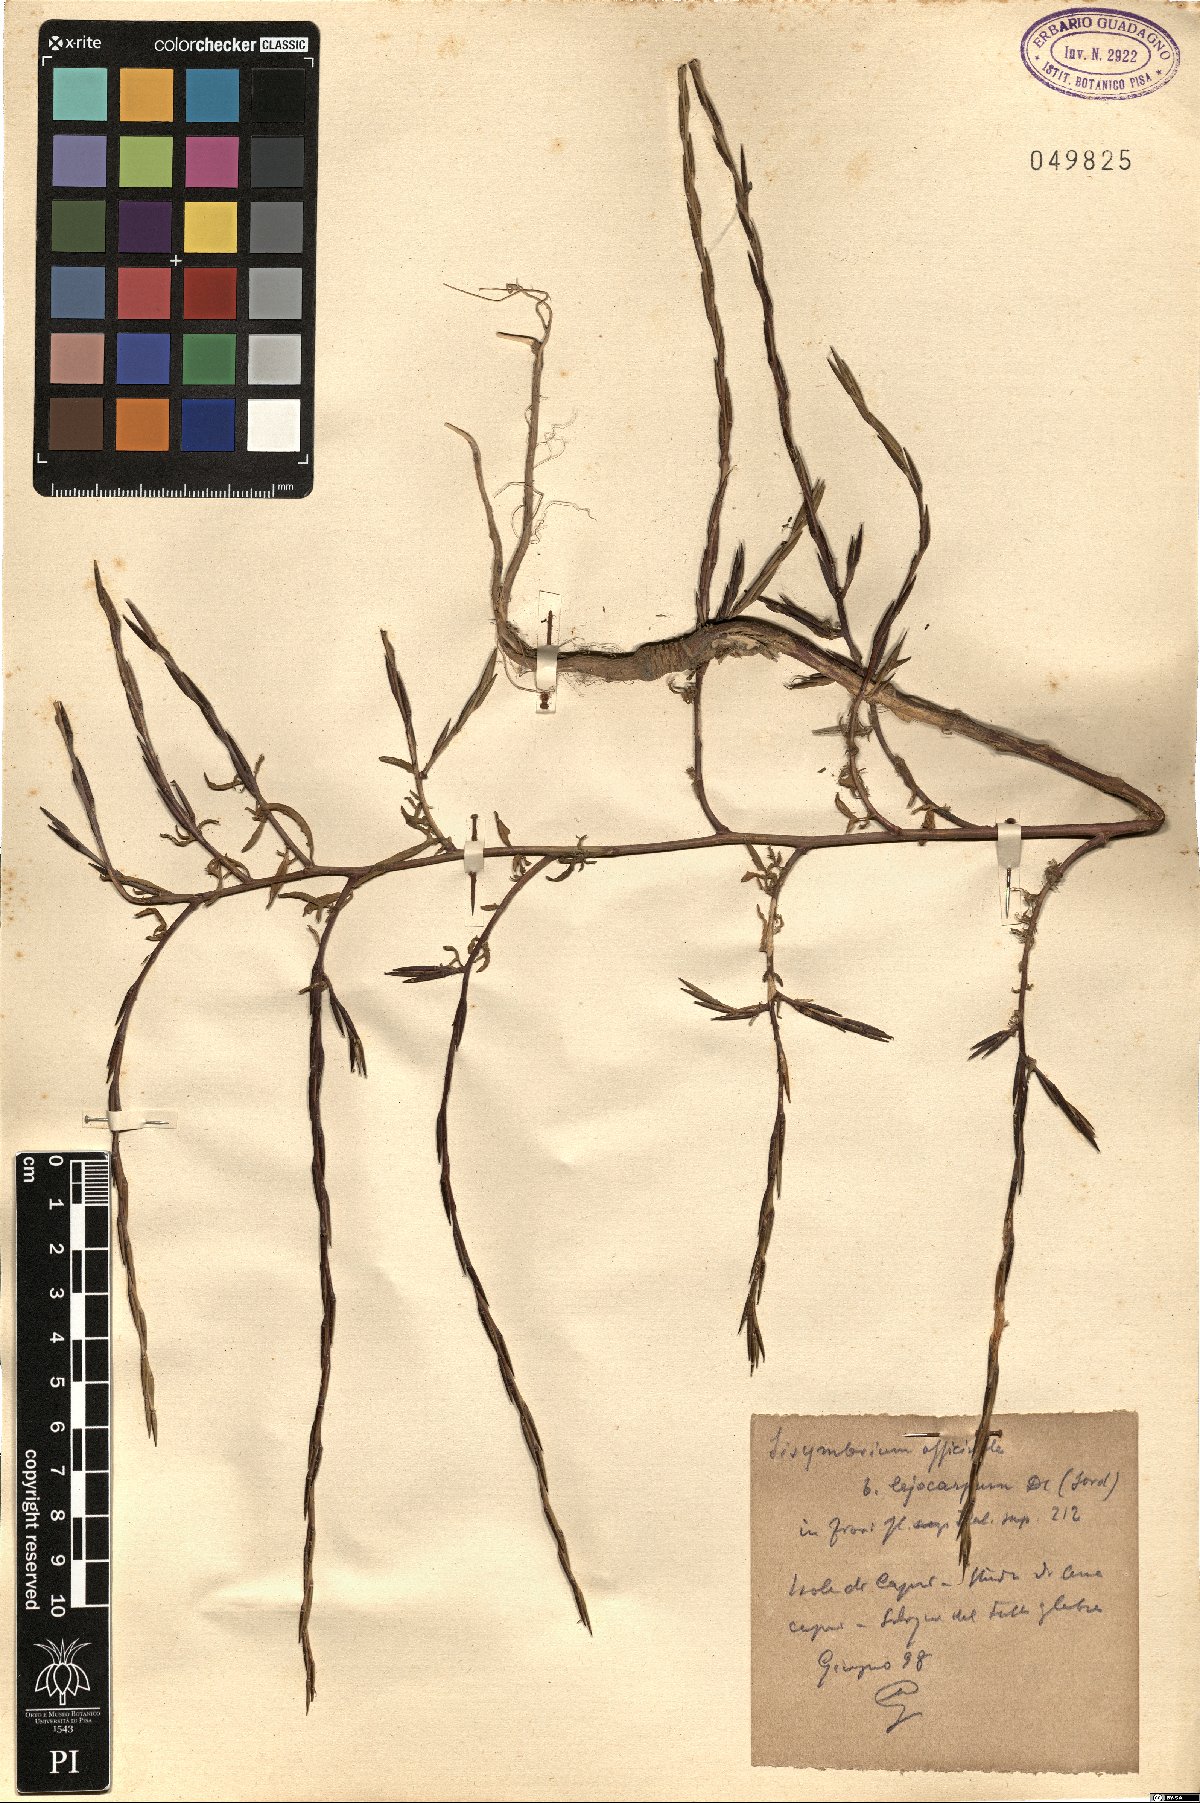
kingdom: Plantae
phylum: Tracheophyta
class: Magnoliopsida
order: Brassicales
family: Brassicaceae
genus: Sisymbrium
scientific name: Sisymbrium officinale
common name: Hedge mustard
